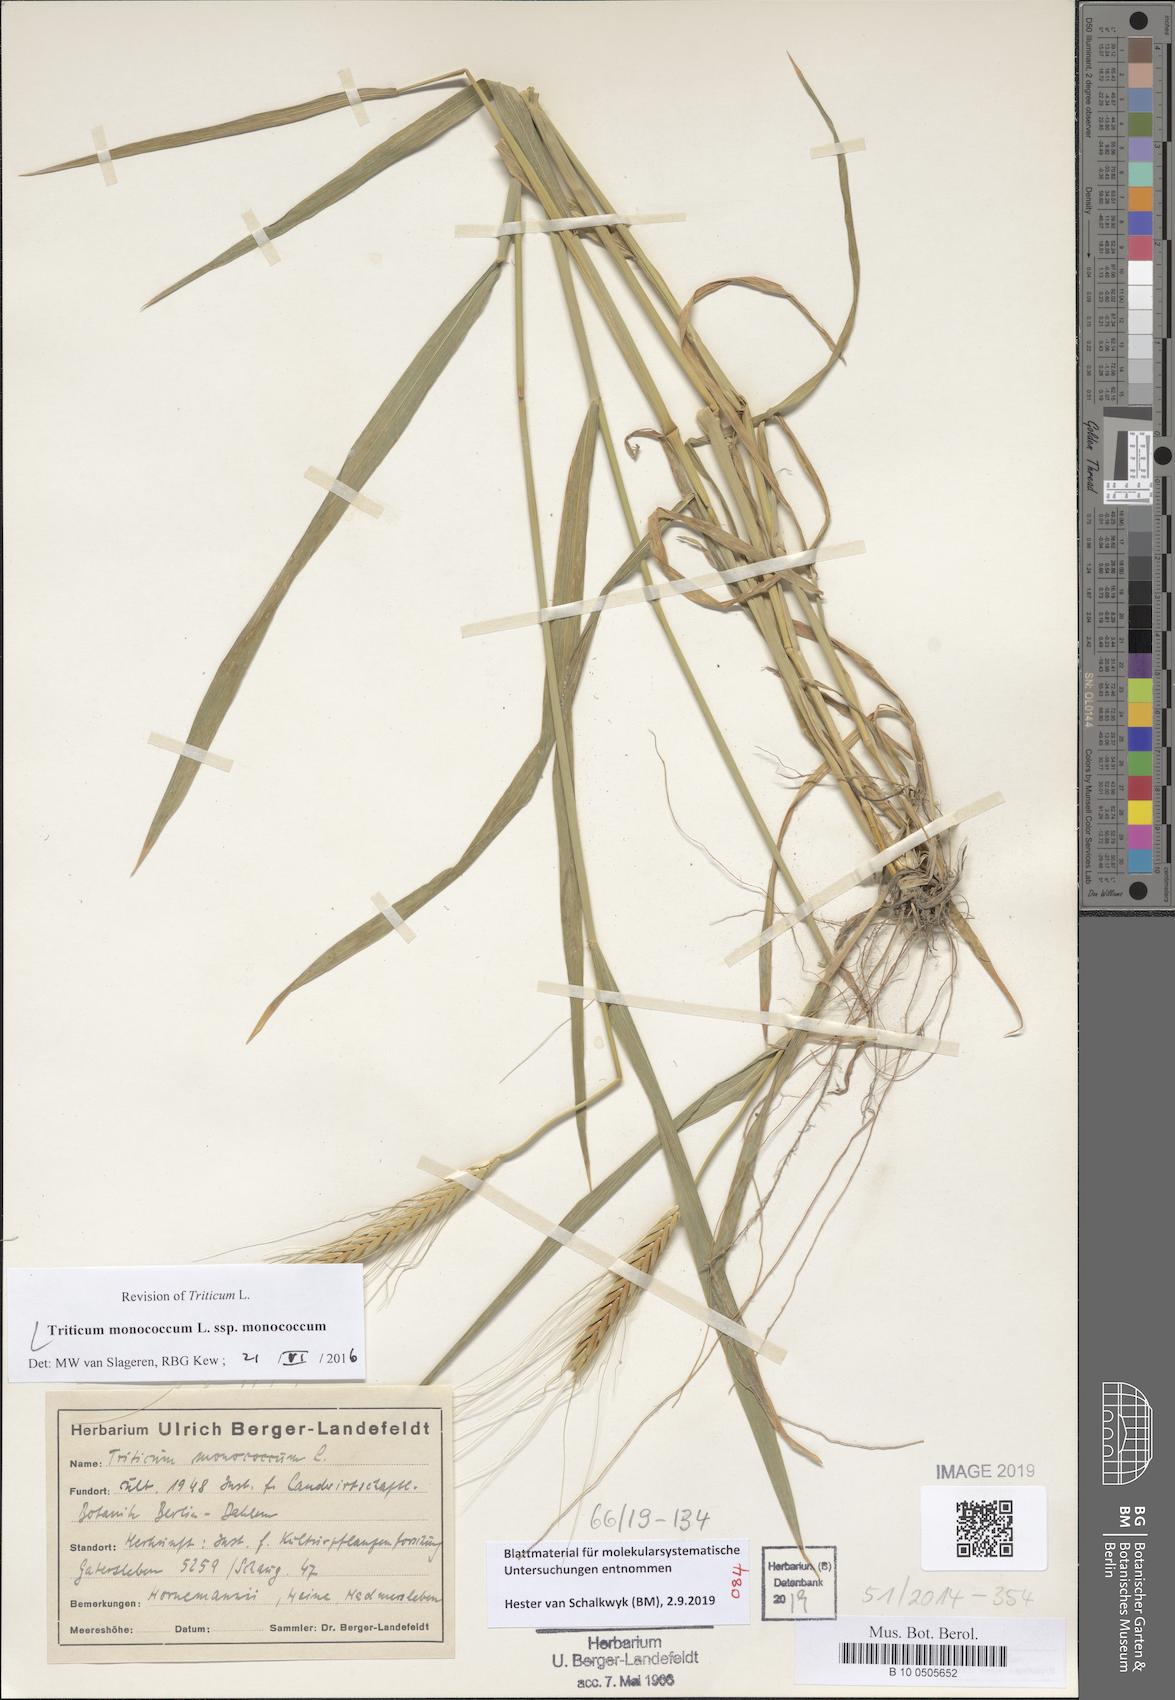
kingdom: Plantae
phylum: Tracheophyta
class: Liliopsida
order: Poales
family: Poaceae
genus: Triticum
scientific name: Triticum monococcum
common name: Einkorn
